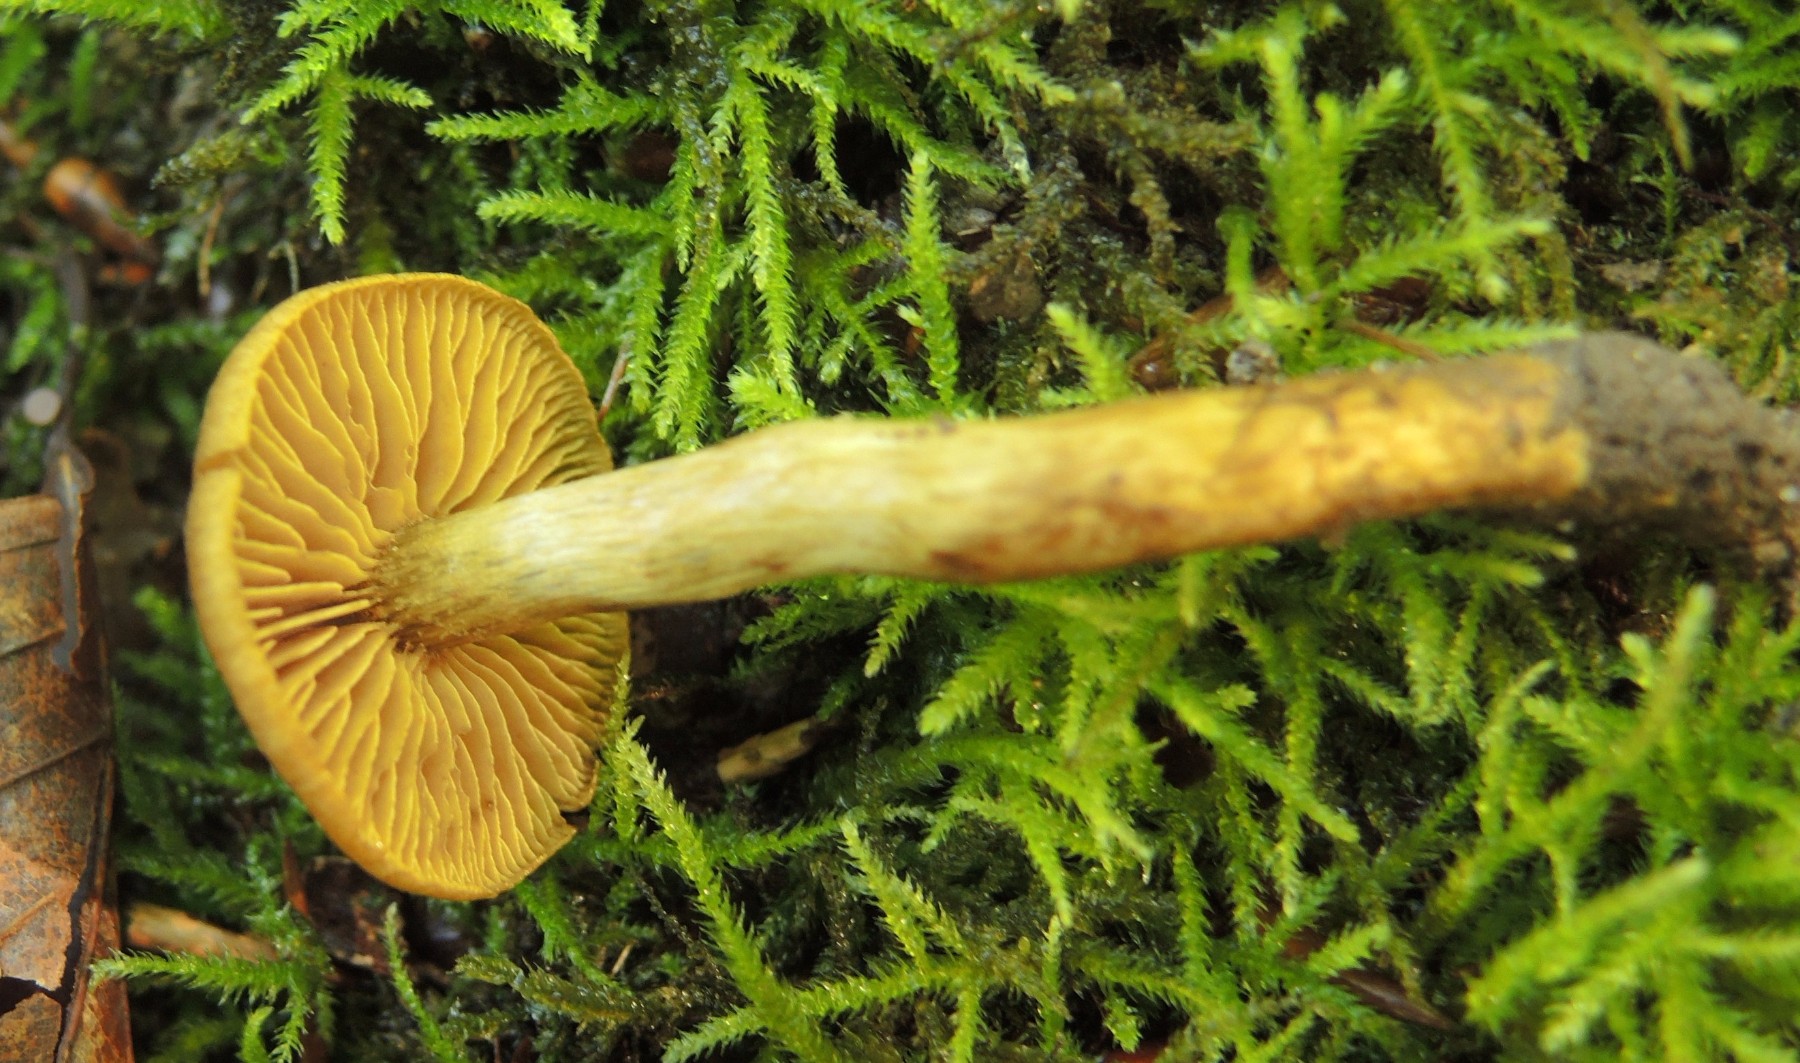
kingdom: Fungi
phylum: Basidiomycota
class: Agaricomycetes
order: Agaricales
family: Cortinariaceae
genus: Cortinarius
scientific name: Cortinarius olivaceofuscus
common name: olivenbrun slørhat
